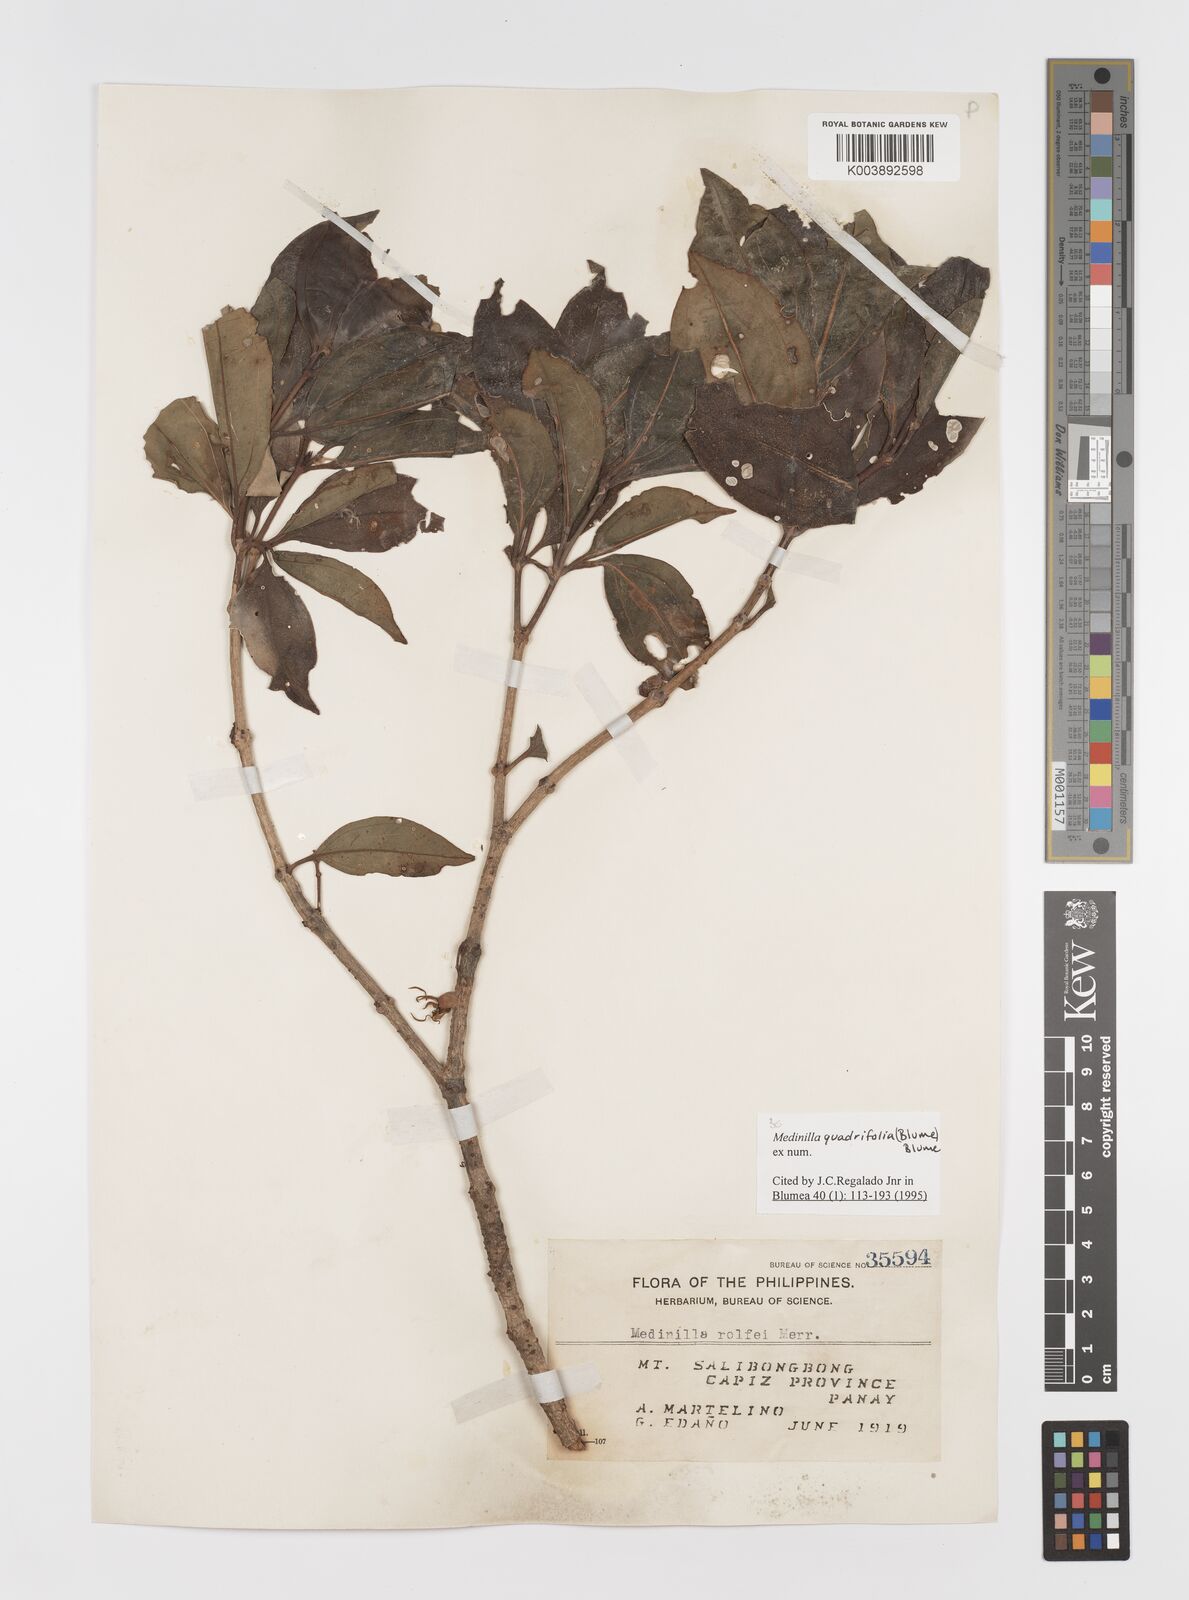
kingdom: Plantae
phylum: Tracheophyta
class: Magnoliopsida
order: Myrtales
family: Melastomataceae
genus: Medinilla
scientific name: Medinilla quadrifolia
